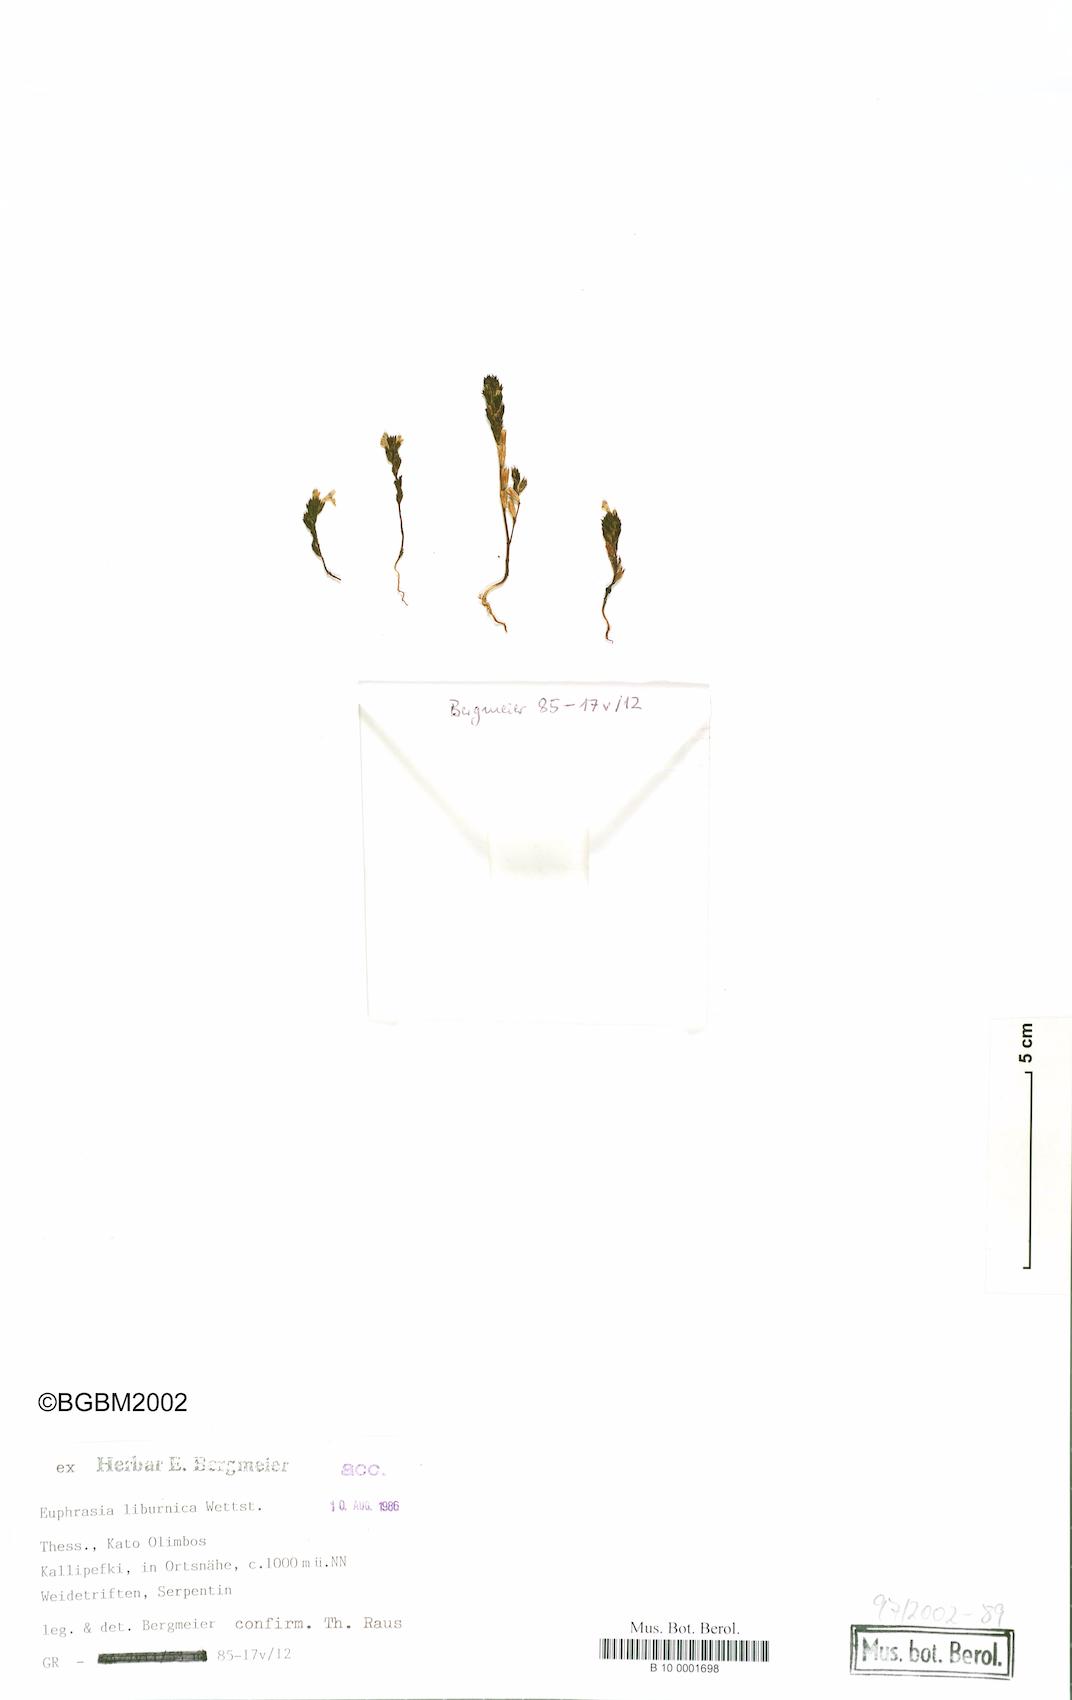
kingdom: Plantae
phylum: Tracheophyta
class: Magnoliopsida
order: Lamiales
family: Orobanchaceae
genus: Euphrasia
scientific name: Euphrasia liburnica
